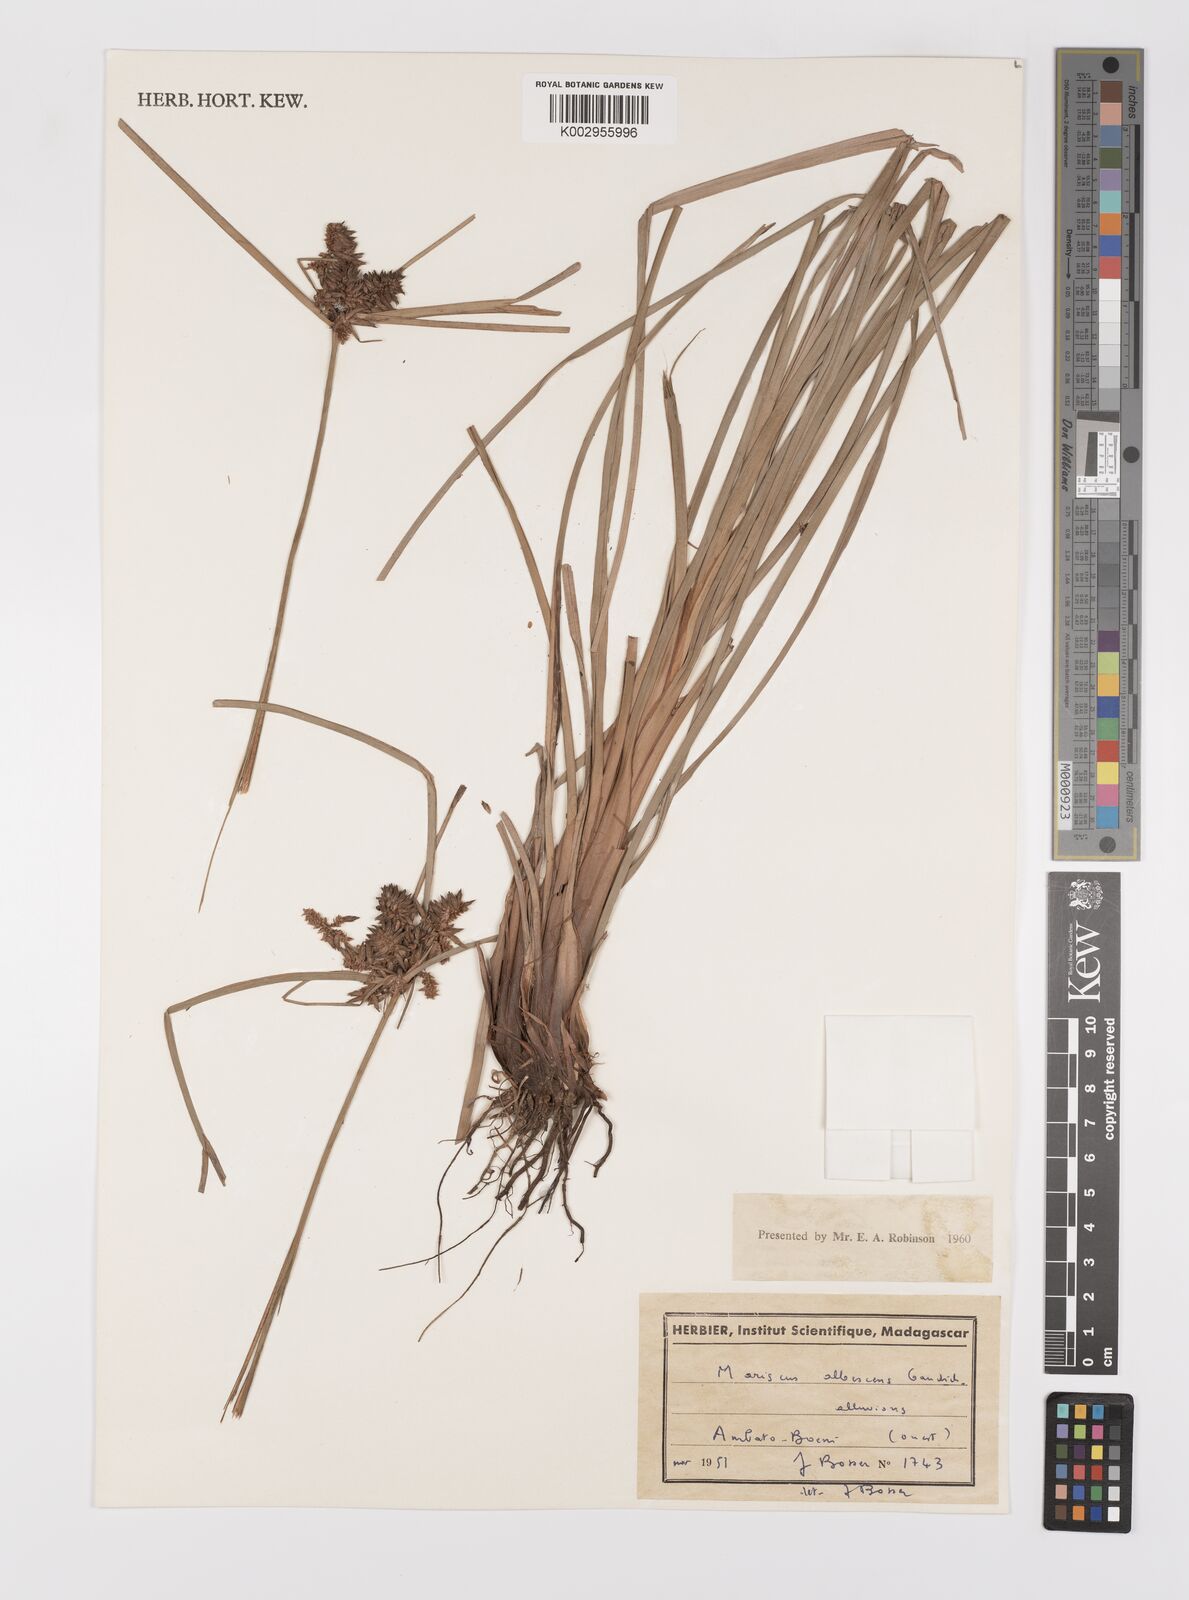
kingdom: Plantae
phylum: Tracheophyta
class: Liliopsida
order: Poales
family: Cyperaceae
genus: Cyperus
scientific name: Cyperus javanicus
